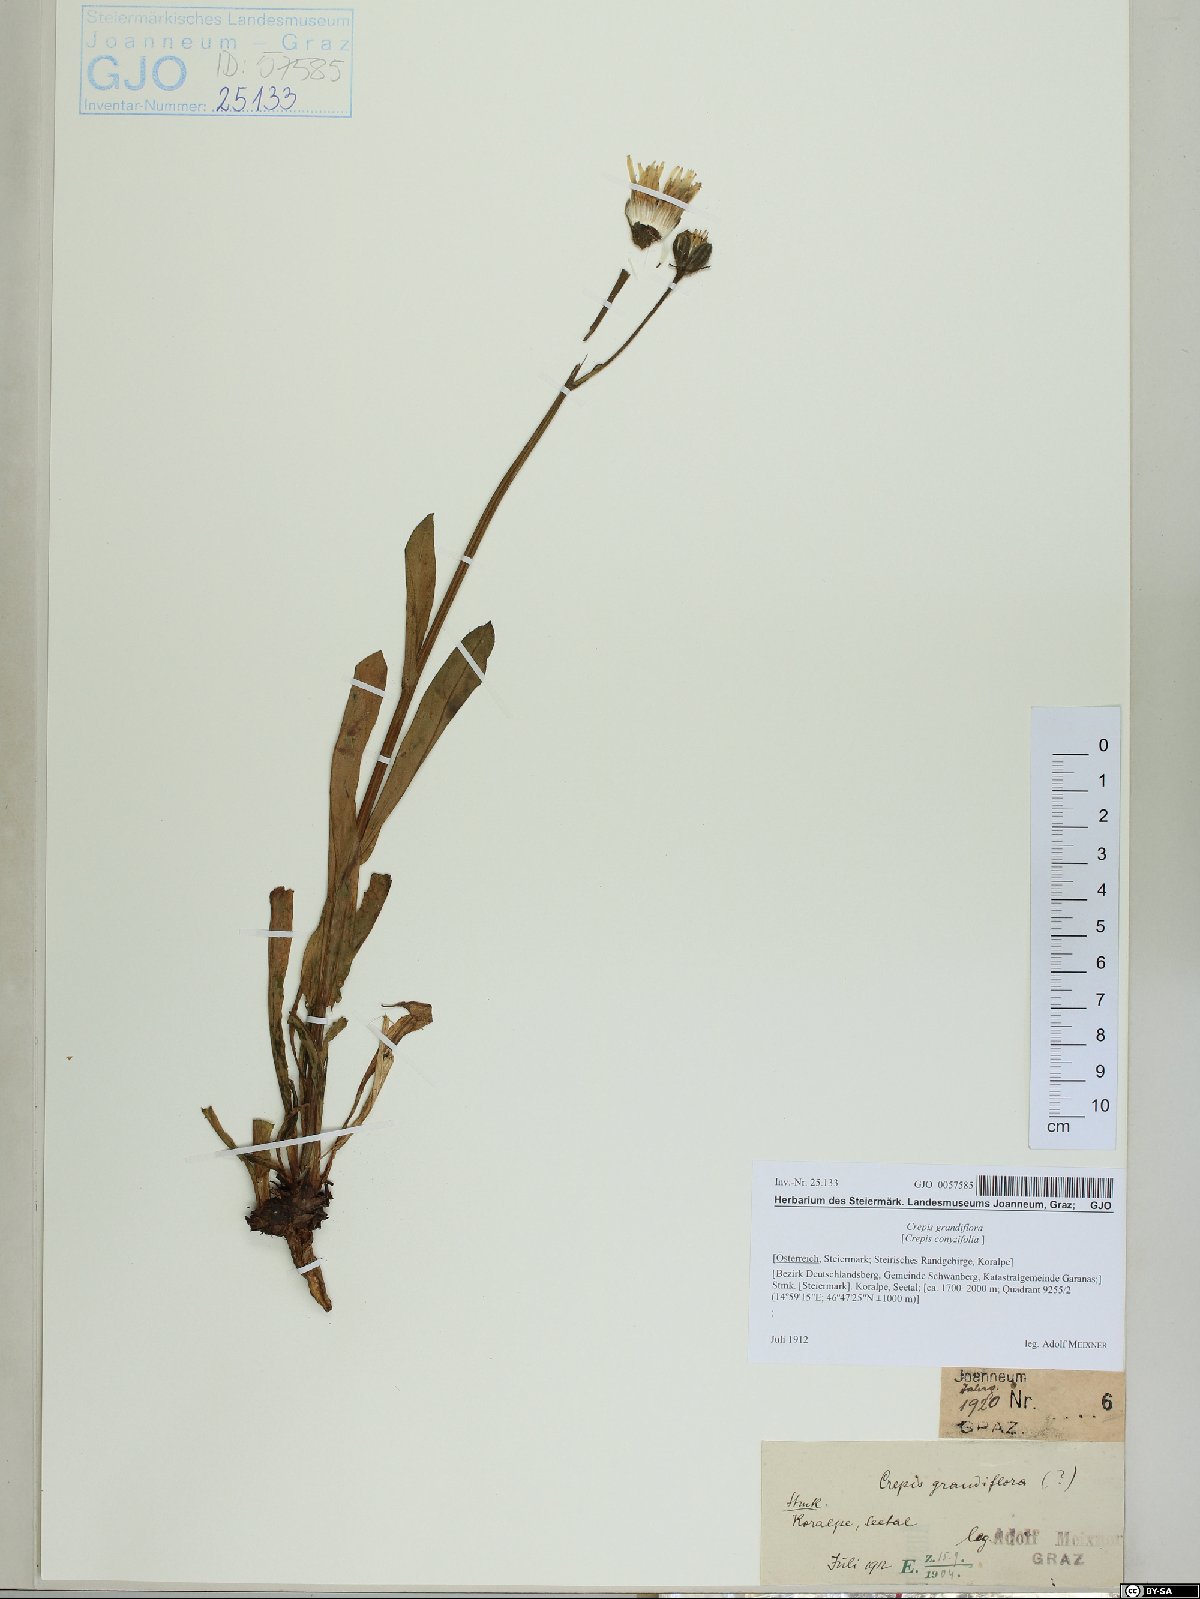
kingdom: Plantae
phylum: Tracheophyta
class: Magnoliopsida
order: Asterales
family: Asteraceae
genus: Crepis
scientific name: Crepis pyrenaica
